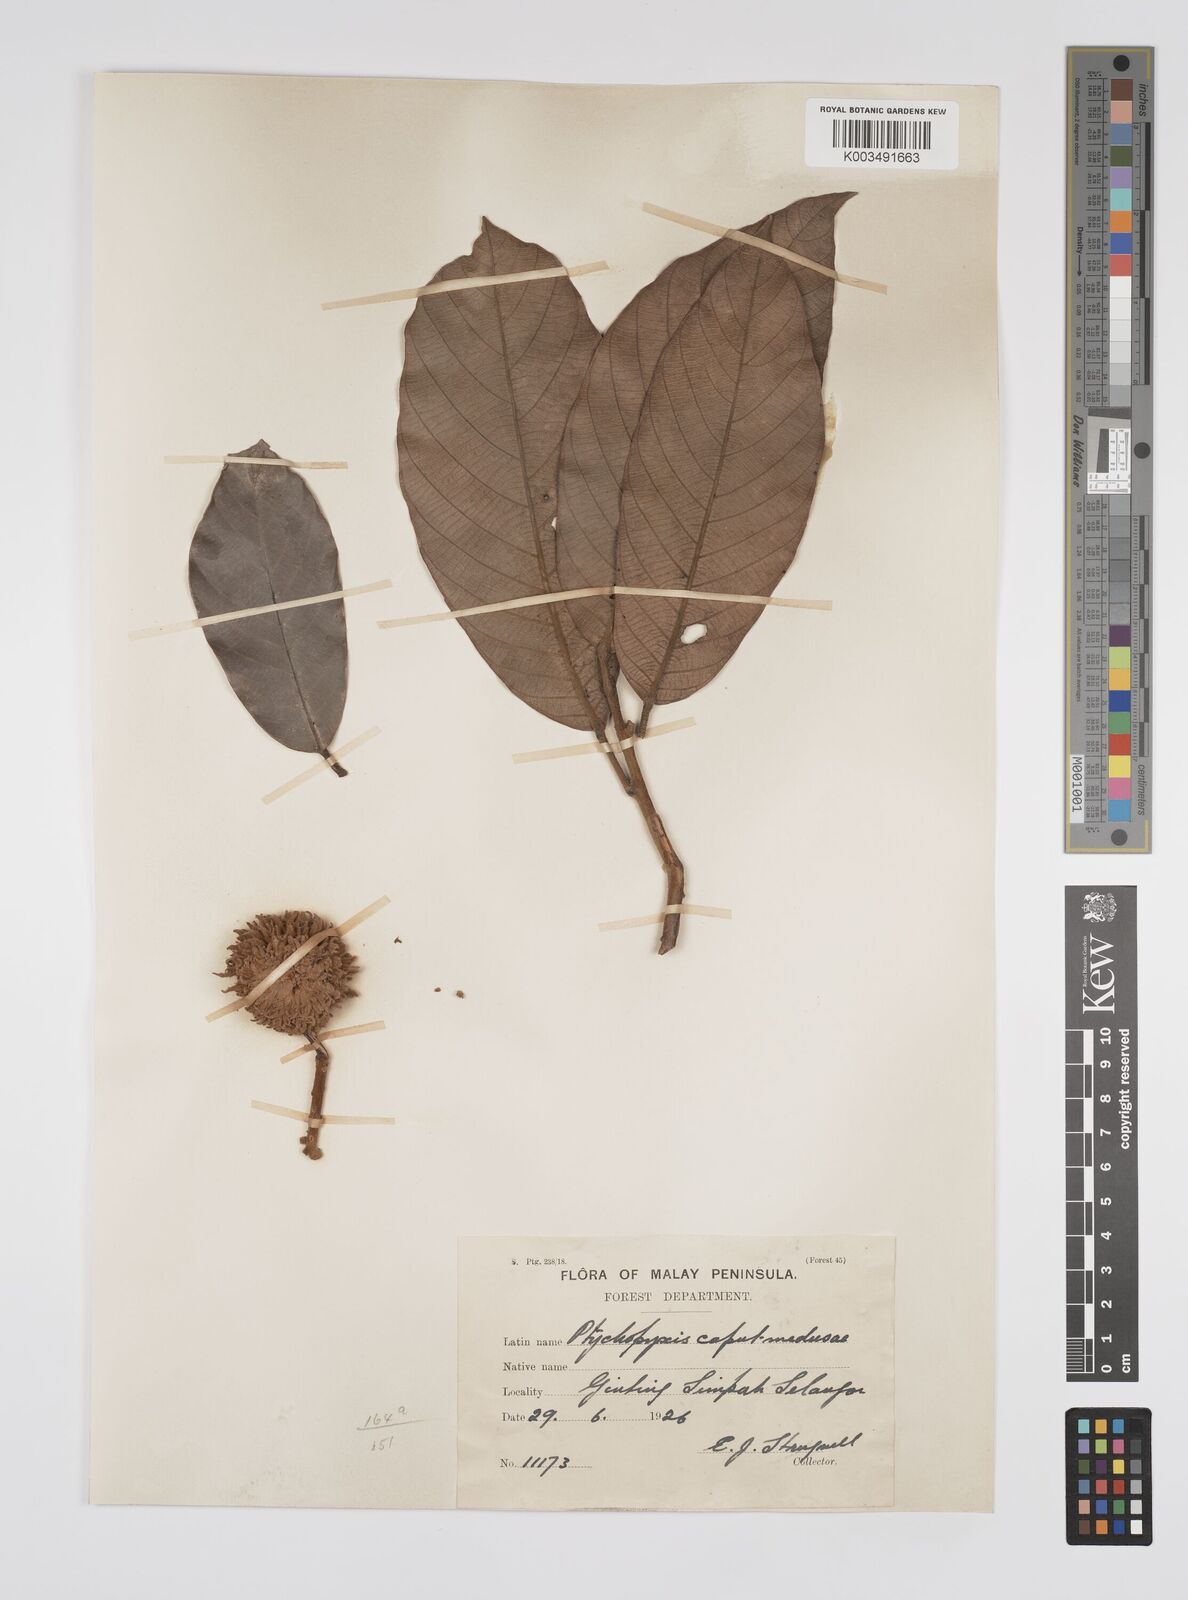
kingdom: Plantae
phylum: Tracheophyta
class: Magnoliopsida
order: Malpighiales
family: Euphorbiaceae
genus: Ptychopyxis
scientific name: Ptychopyxis caput-medusae
